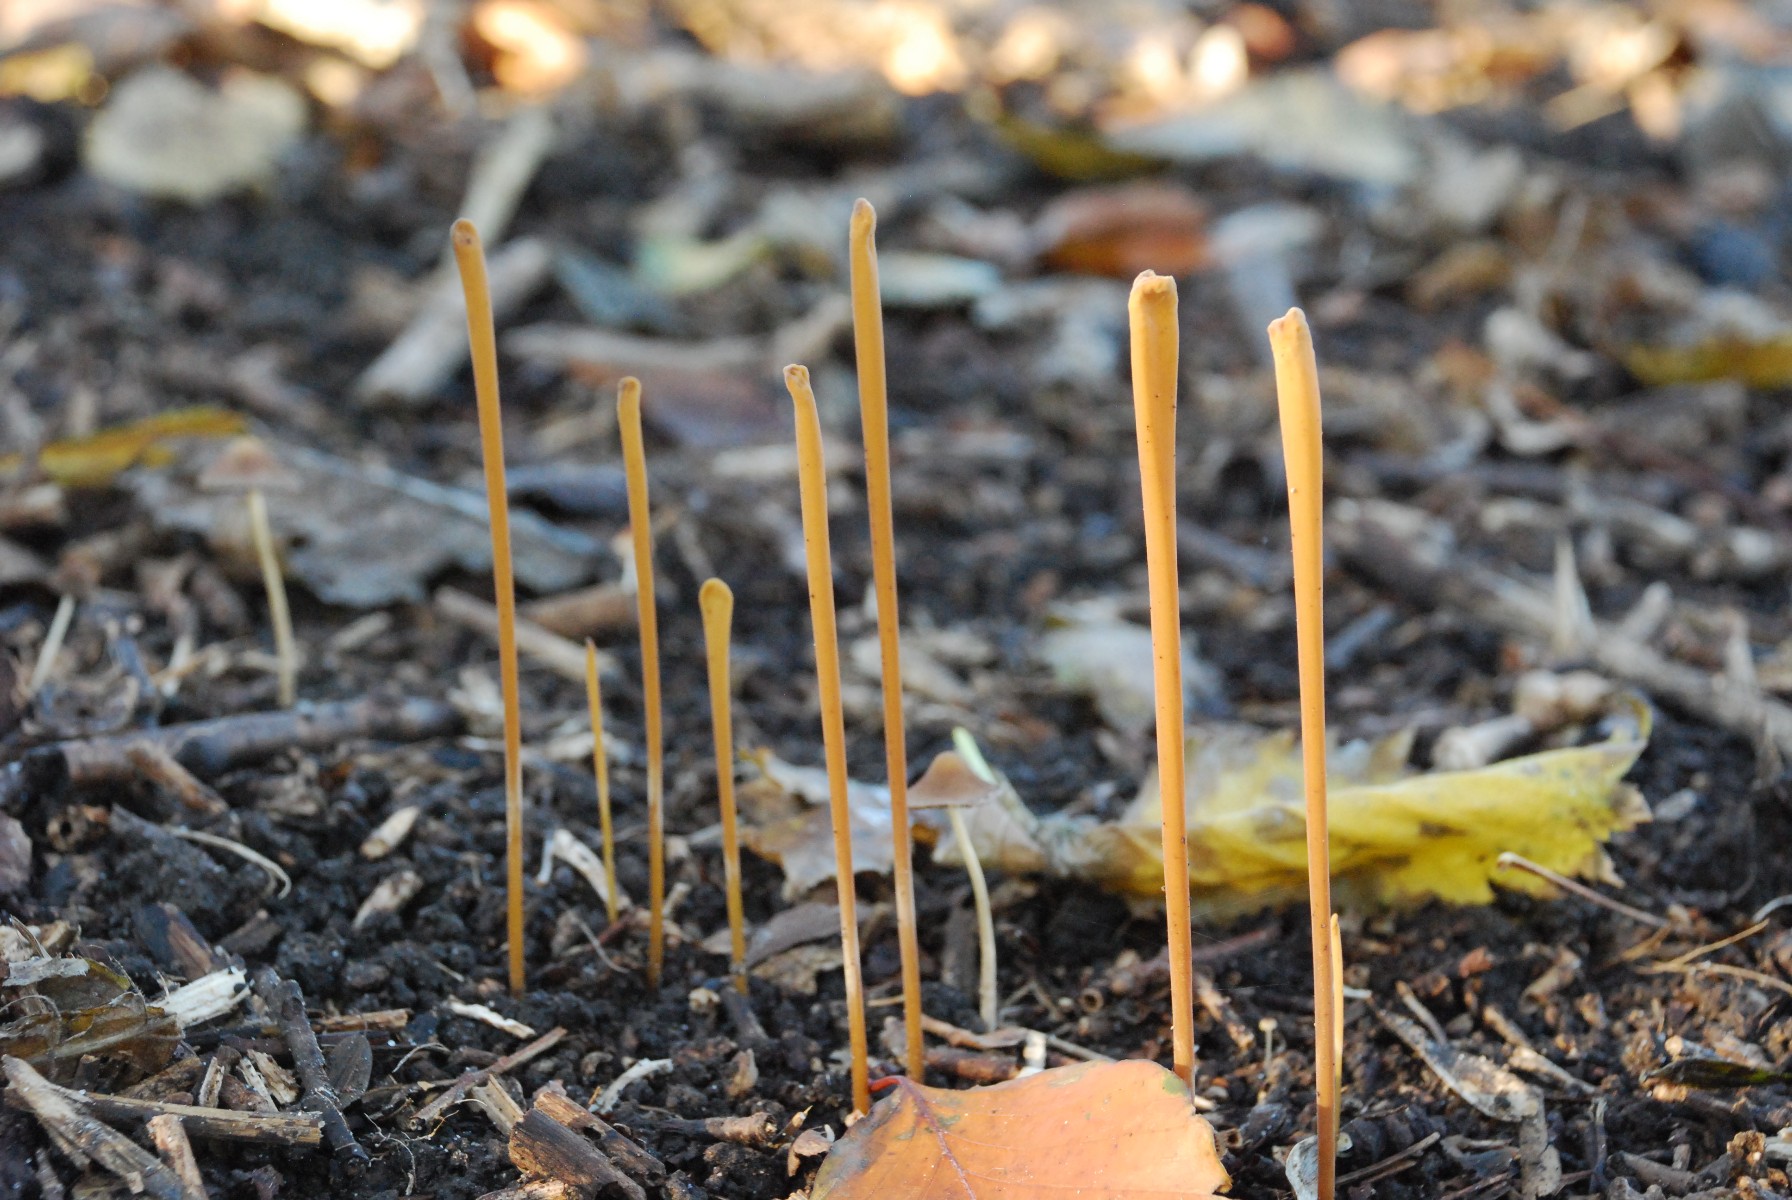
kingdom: Fungi
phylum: Basidiomycota
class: Agaricomycetes
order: Agaricales
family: Typhulaceae
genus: Typhula
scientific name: Typhula fistulosa
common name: pibet rørkølle
